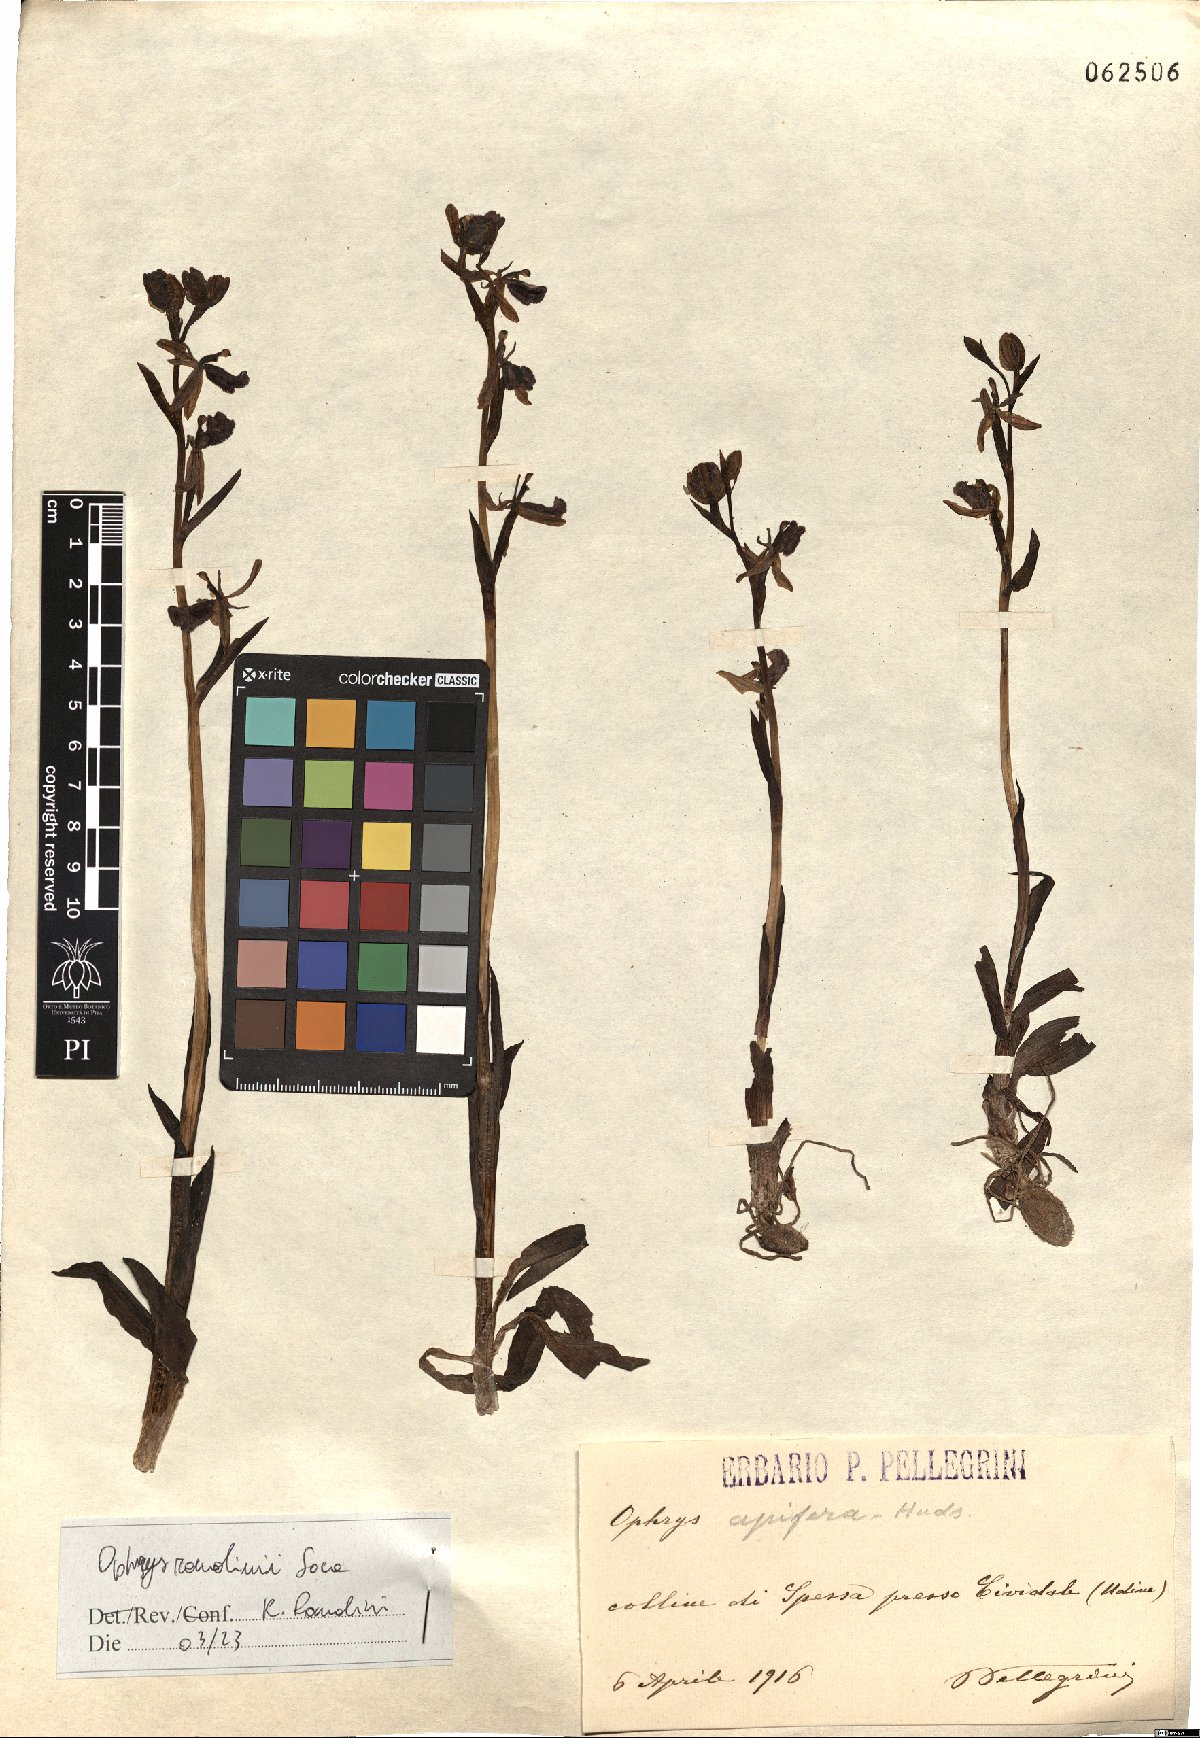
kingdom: Plantae
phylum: Tracheophyta
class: Liliopsida
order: Asparagales
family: Orchidaceae
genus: Ophrys
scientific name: Ophrys bertolonii
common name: Bertoloni's bee orchid
